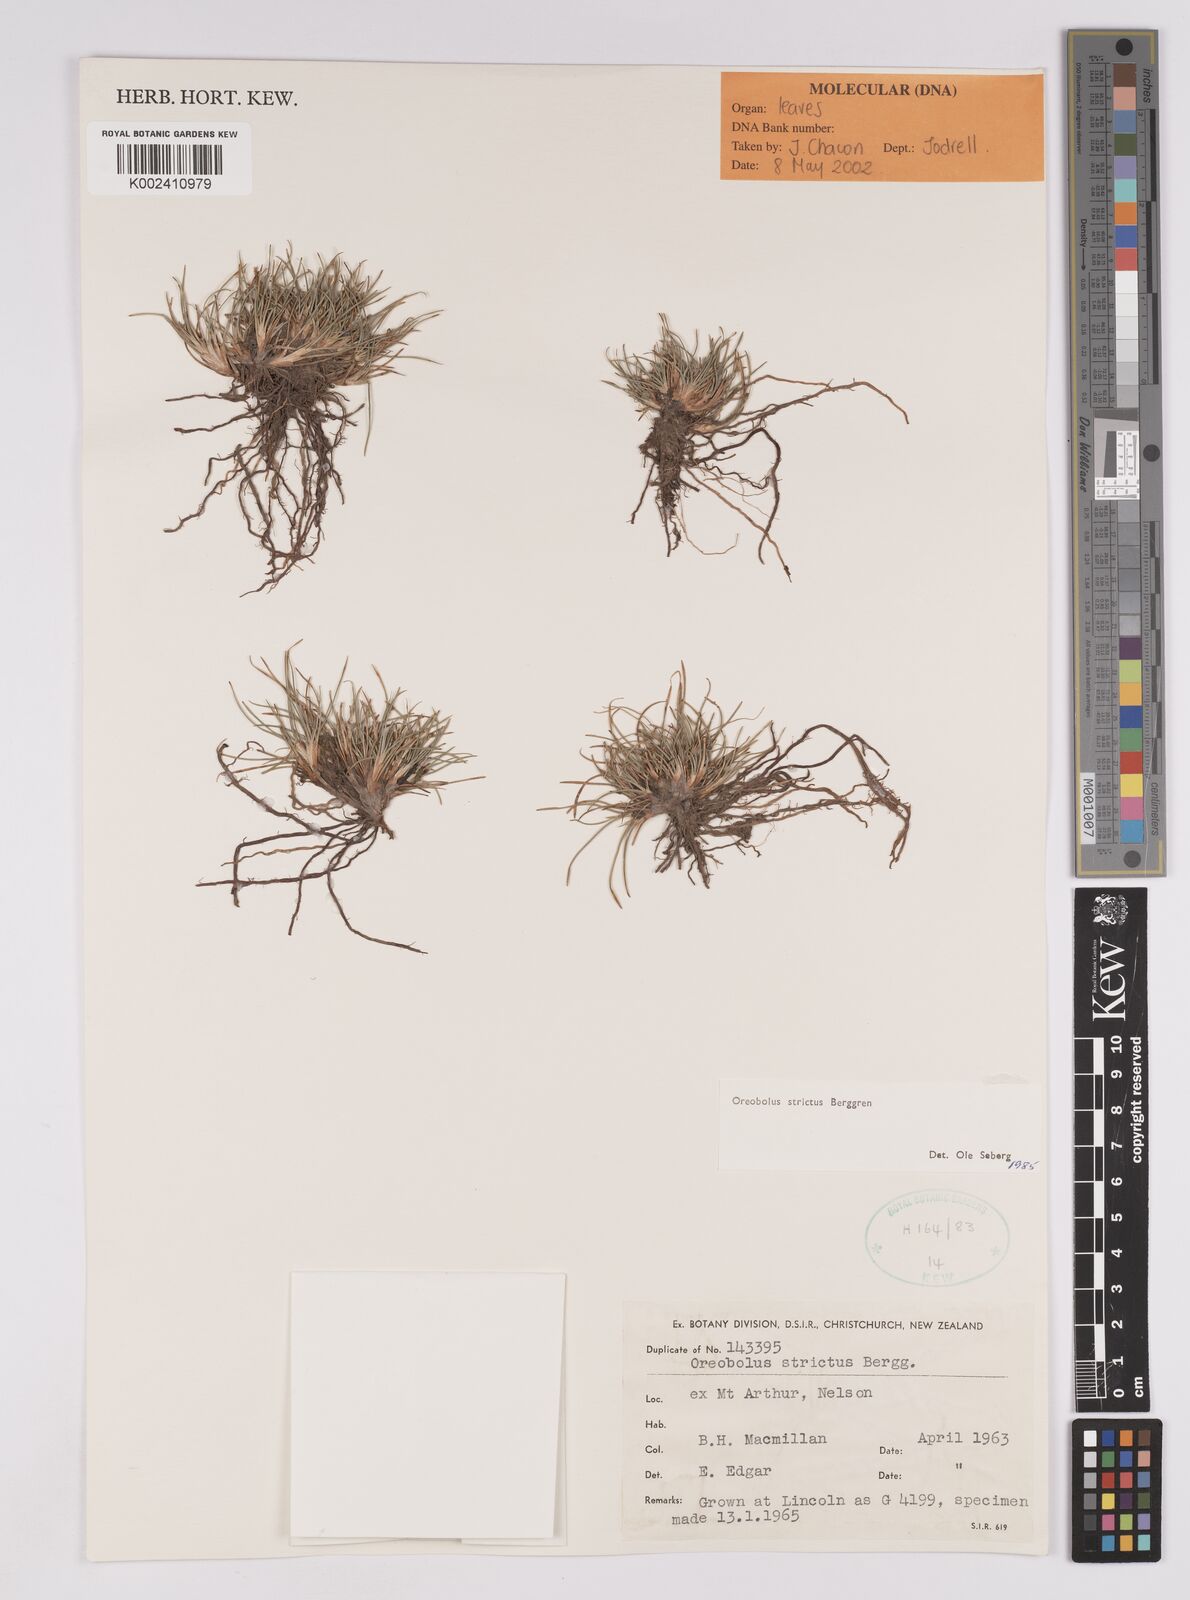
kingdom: Plantae
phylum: Tracheophyta
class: Liliopsida
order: Poales
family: Cyperaceae
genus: Oreobolus
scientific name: Oreobolus strictus
